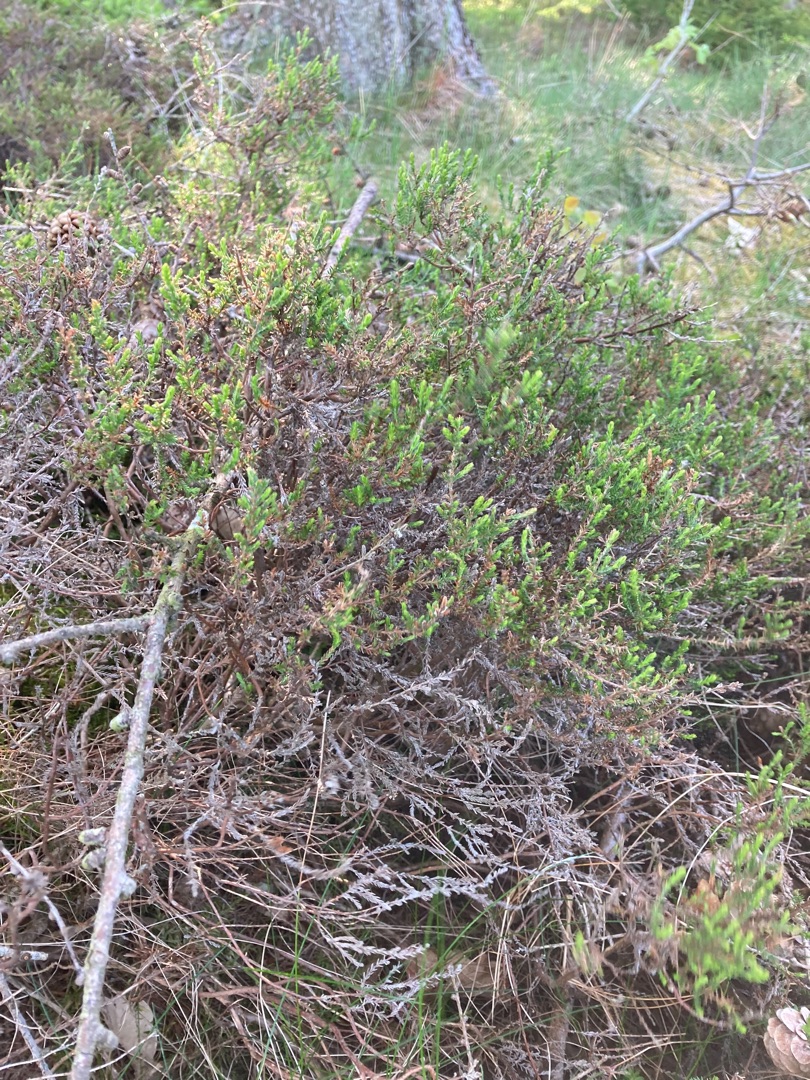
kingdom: Plantae
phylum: Tracheophyta
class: Magnoliopsida
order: Ericales
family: Ericaceae
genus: Calluna
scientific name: Calluna vulgaris
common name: Hedelyng
